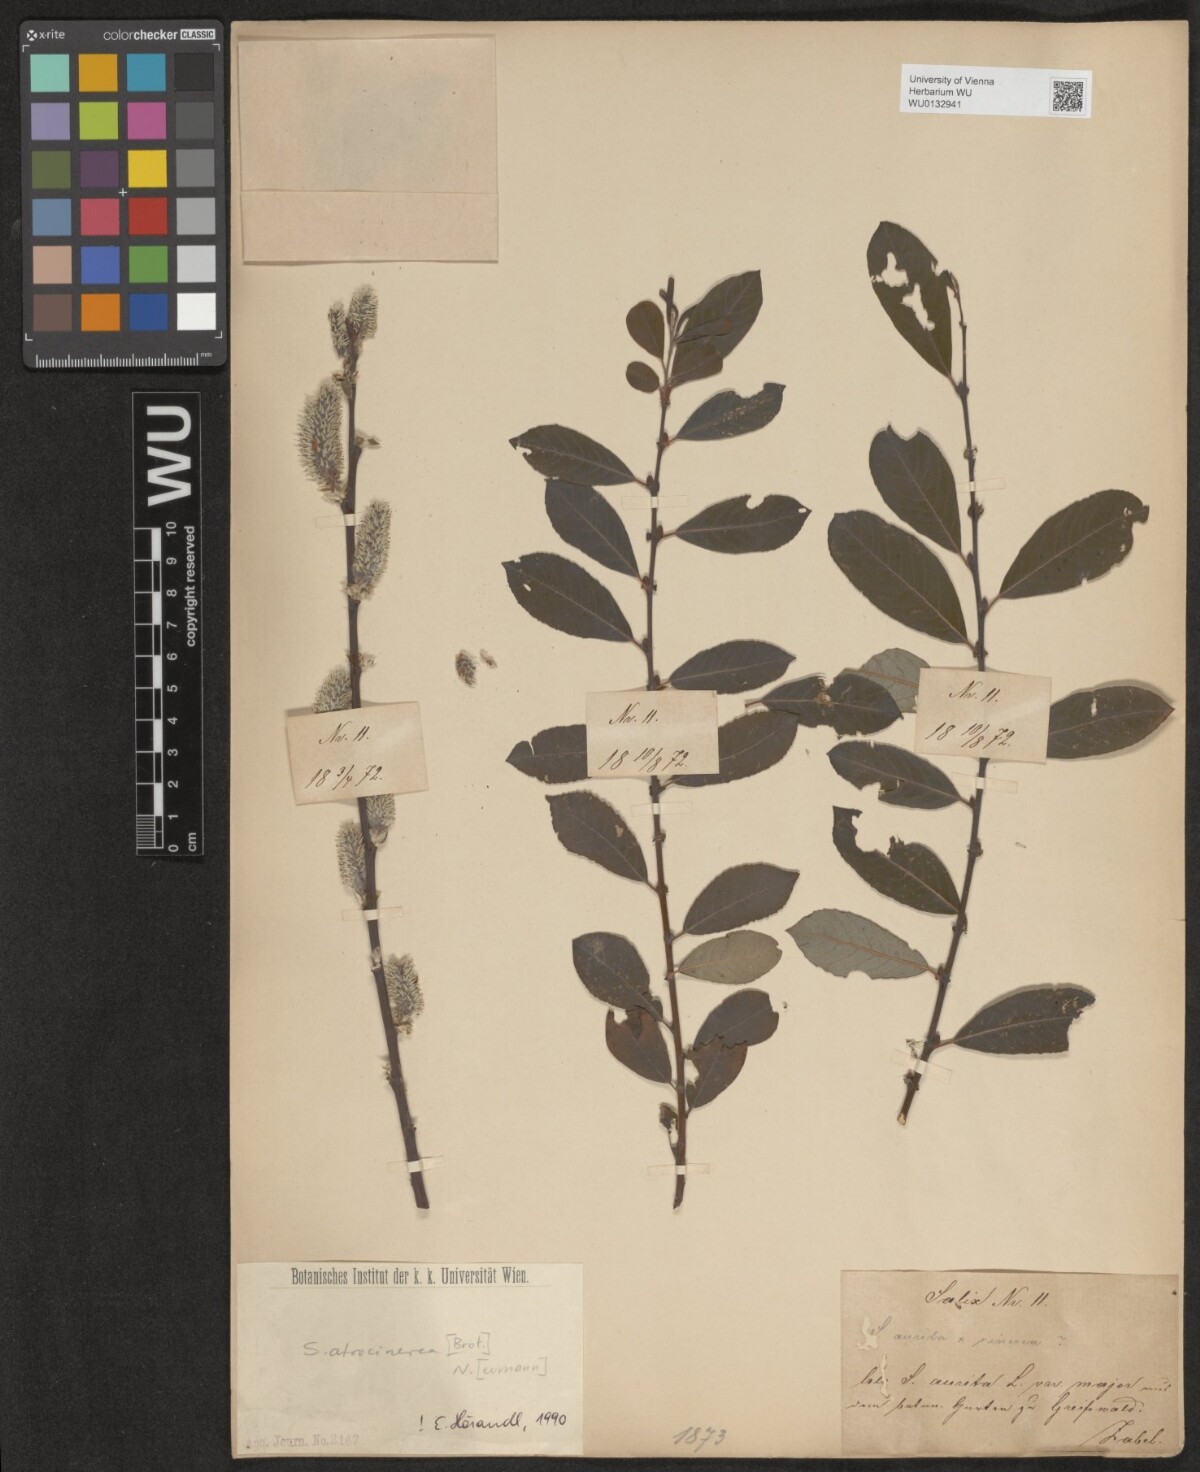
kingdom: Plantae
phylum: Tracheophyta
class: Magnoliopsida
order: Malpighiales
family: Salicaceae
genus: Salix
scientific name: Salix atrocinerea
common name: Rusty willow
